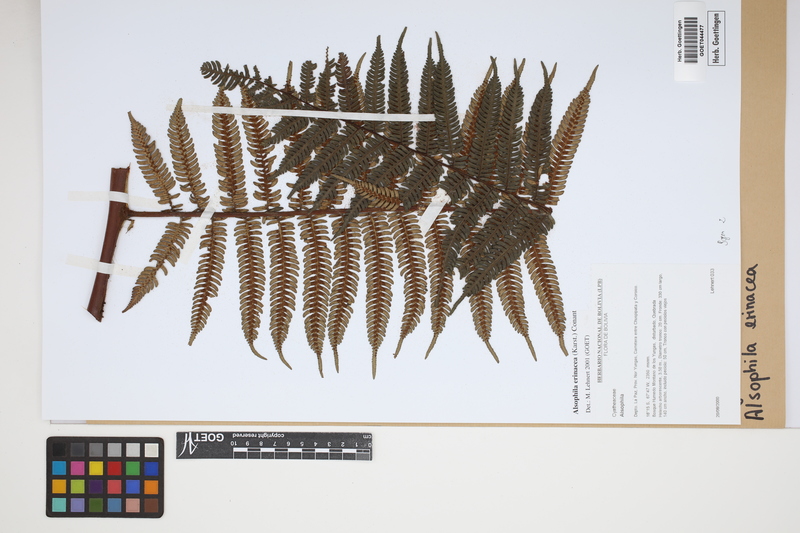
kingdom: Plantae
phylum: Tracheophyta
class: Polypodiopsida
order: Cyatheales
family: Cyatheaceae
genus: Alsophila
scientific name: Alsophila erinacea
